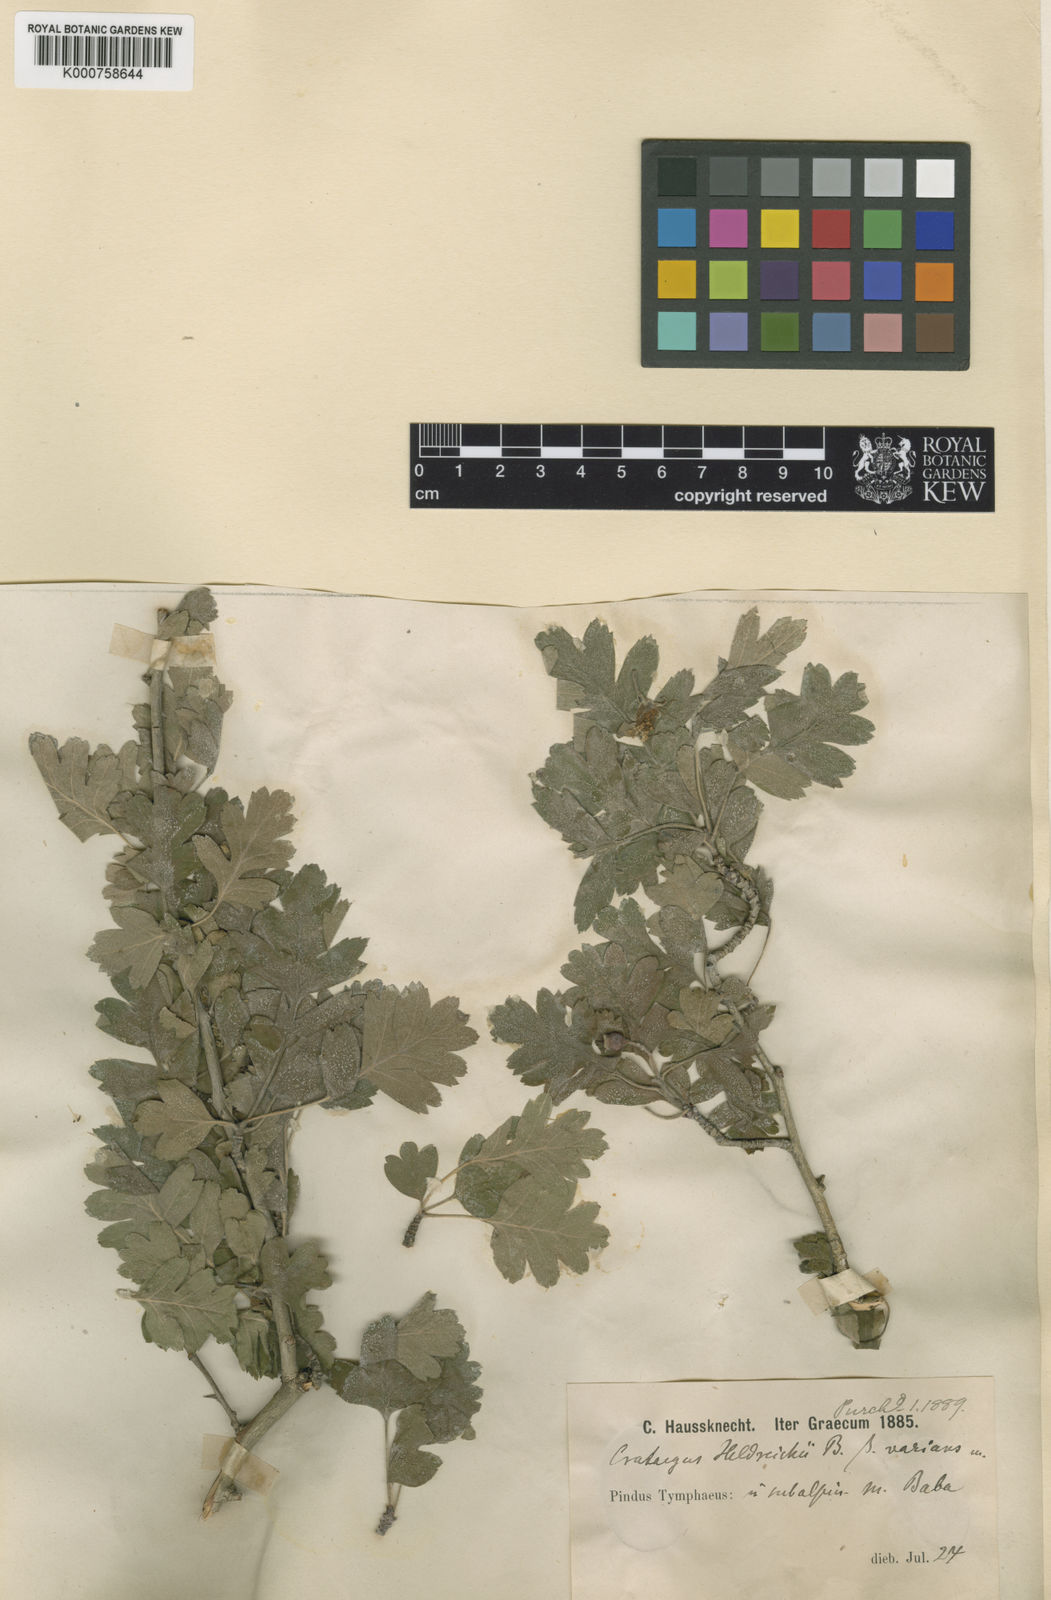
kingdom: Plantae
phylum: Tracheophyta
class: Magnoliopsida
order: Rosales
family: Rosaceae
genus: Crataegus
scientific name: Crataegus heldreichii
